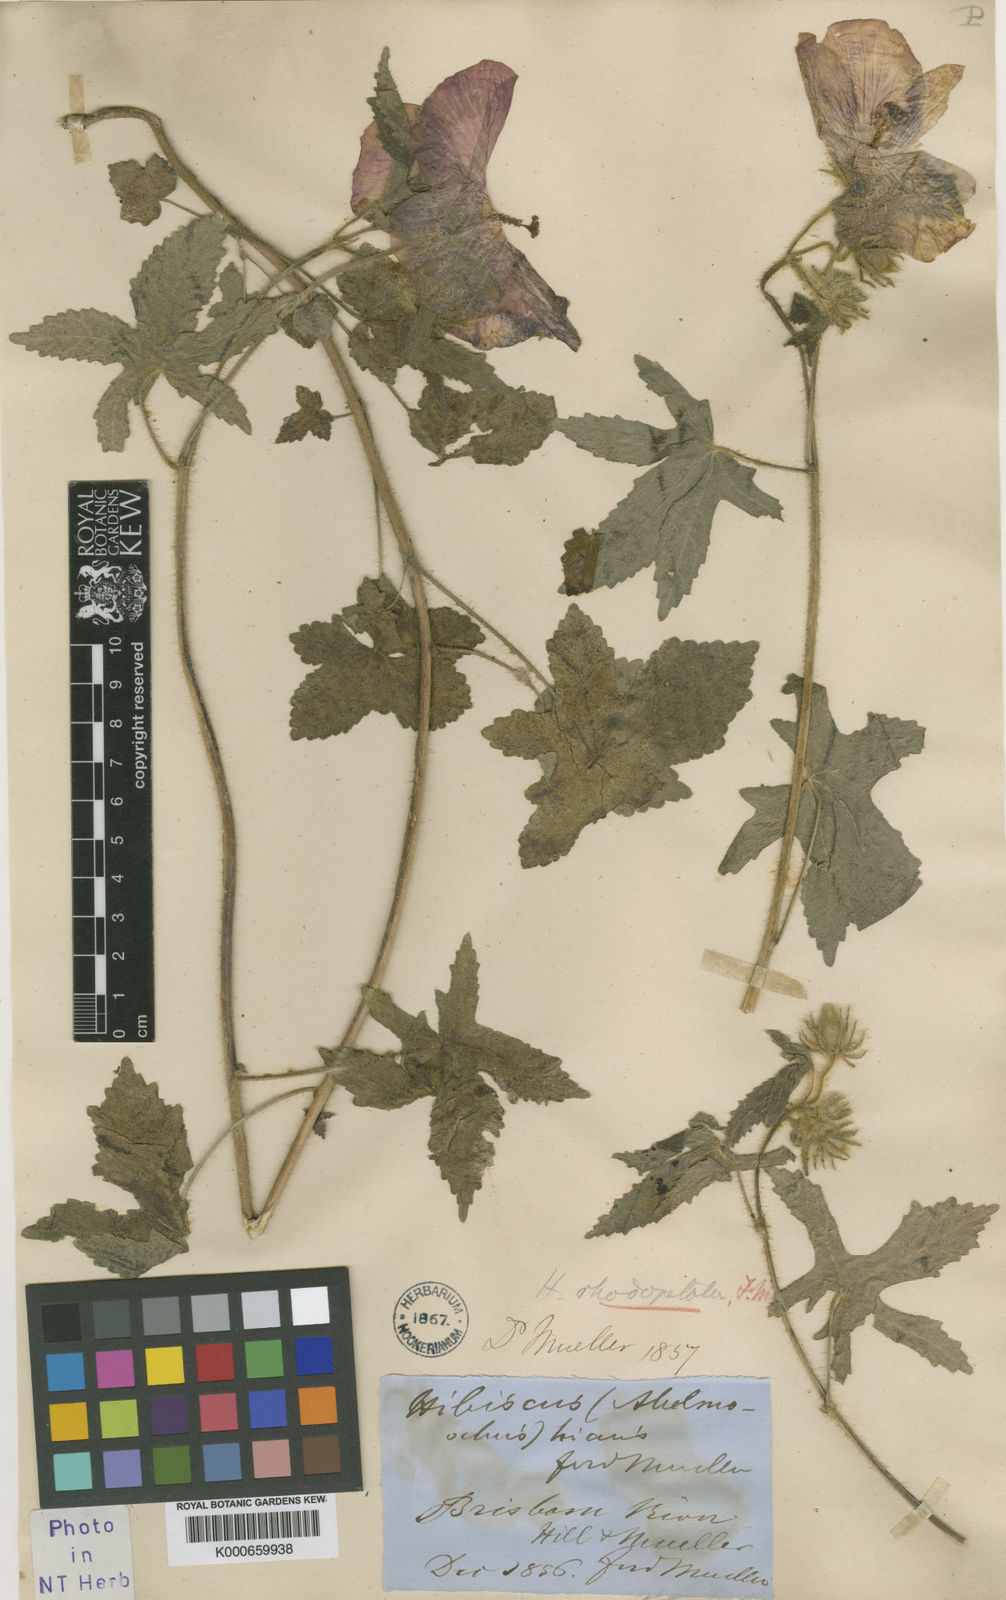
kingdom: Plantae
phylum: Tracheophyta
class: Magnoliopsida
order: Malvales
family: Malvaceae
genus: Abelmoschus
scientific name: Abelmoschus sagittifolius
